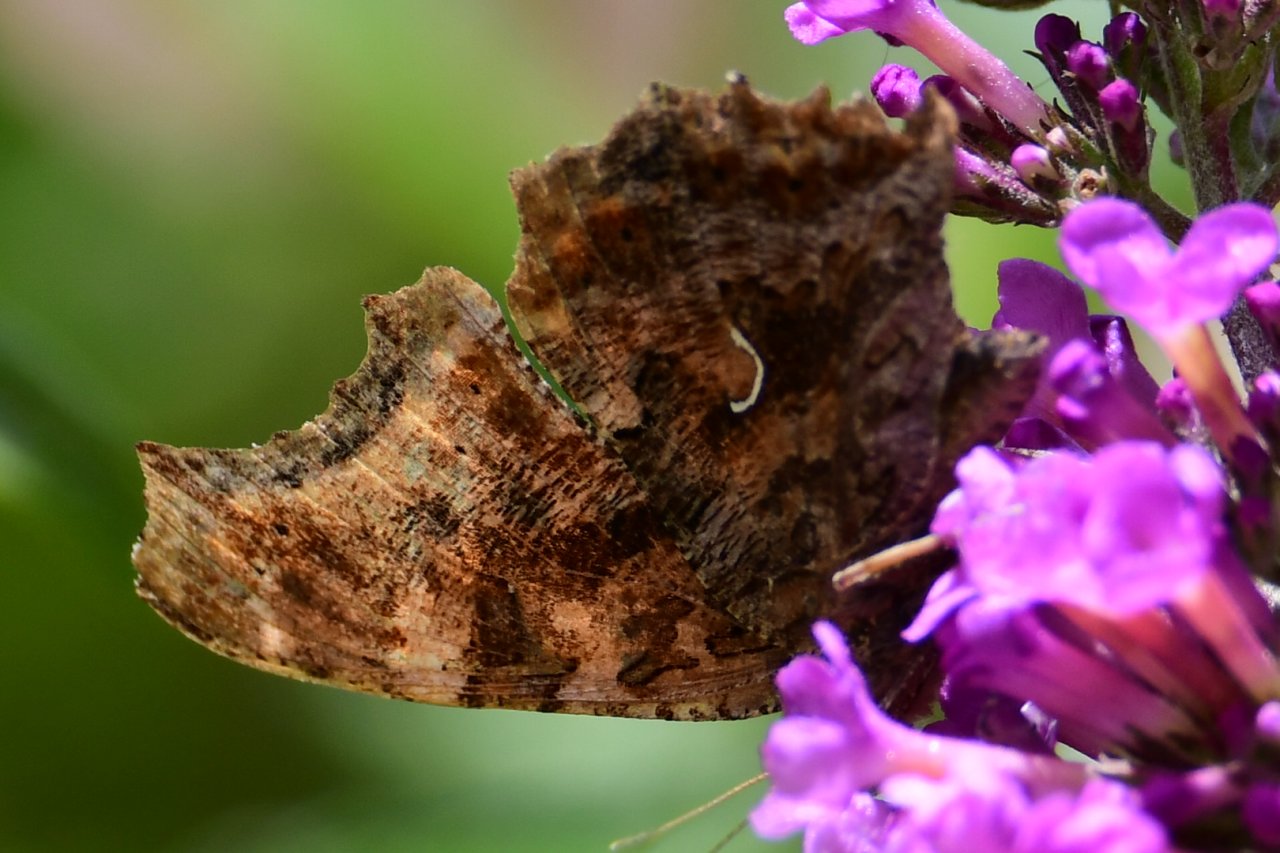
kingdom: Animalia
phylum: Arthropoda
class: Insecta
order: Lepidoptera
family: Nymphalidae
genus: Polygonia
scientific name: Polygonia comma
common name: Eastern Comma
